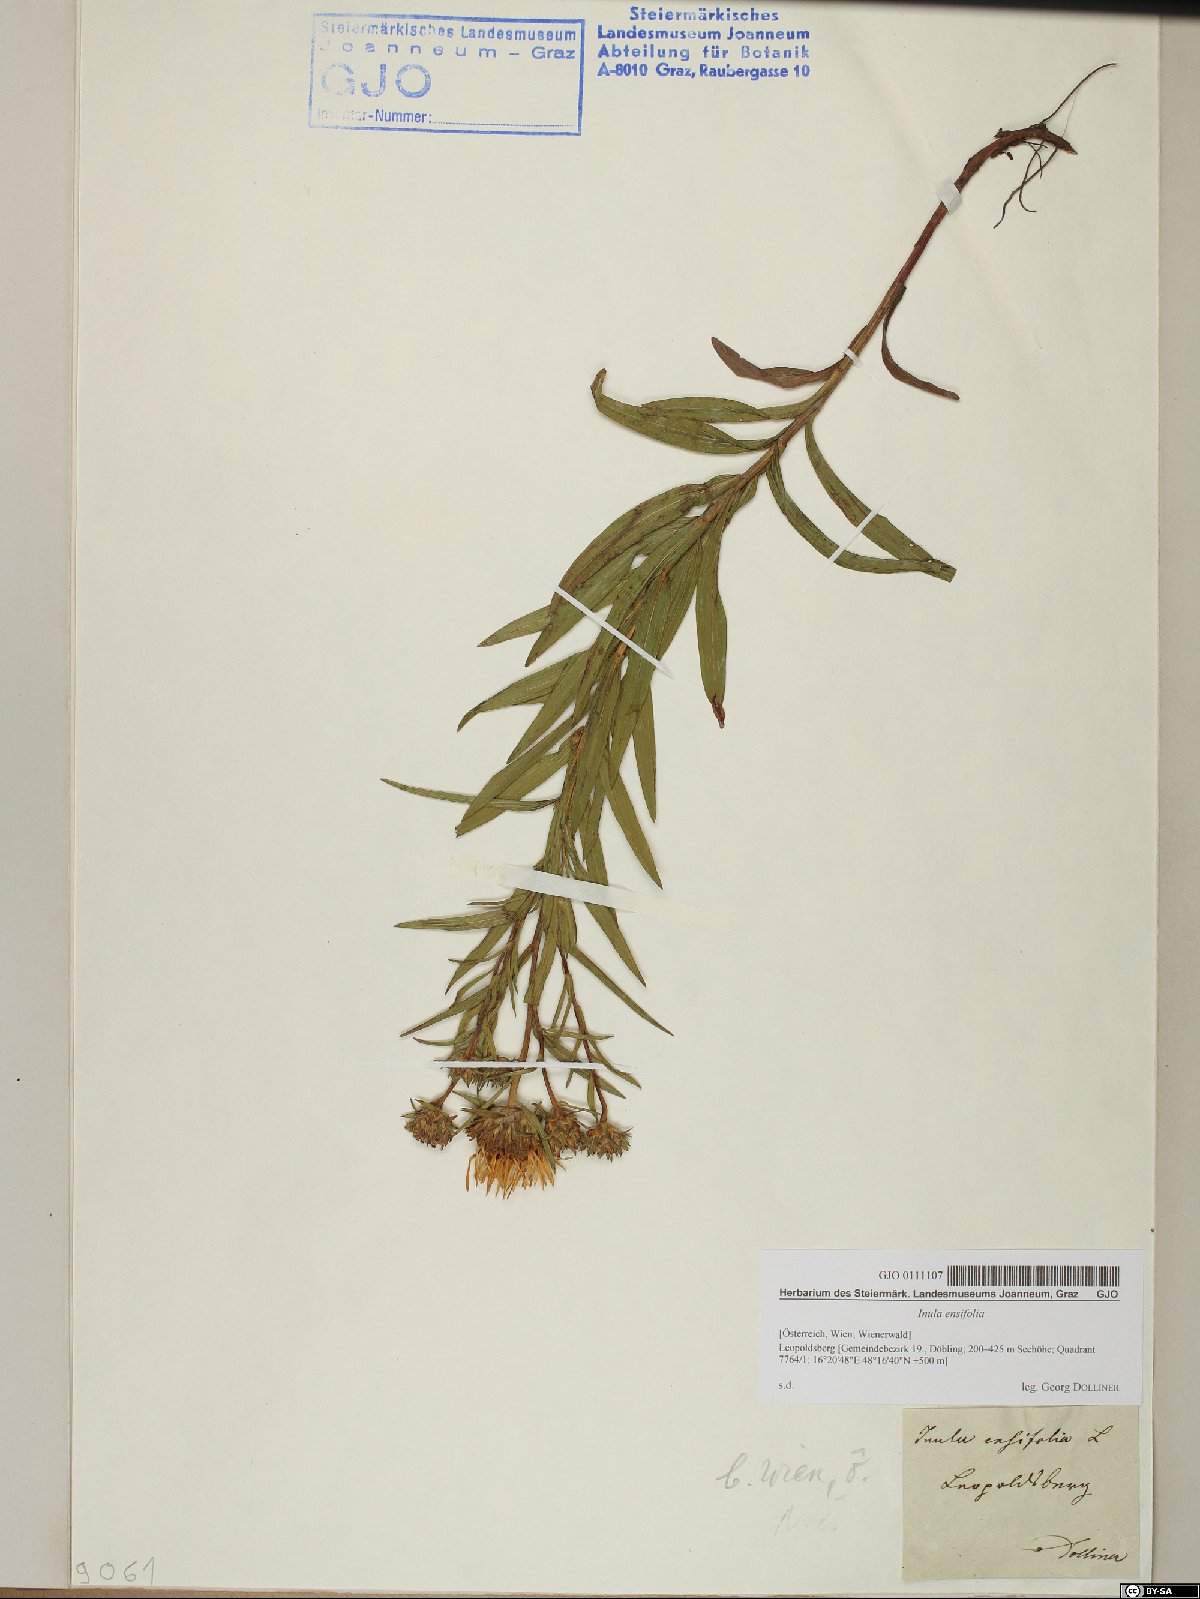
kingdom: Plantae
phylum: Tracheophyta
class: Magnoliopsida
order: Asterales
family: Asteraceae
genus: Pentanema
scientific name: Pentanema ensifolium
